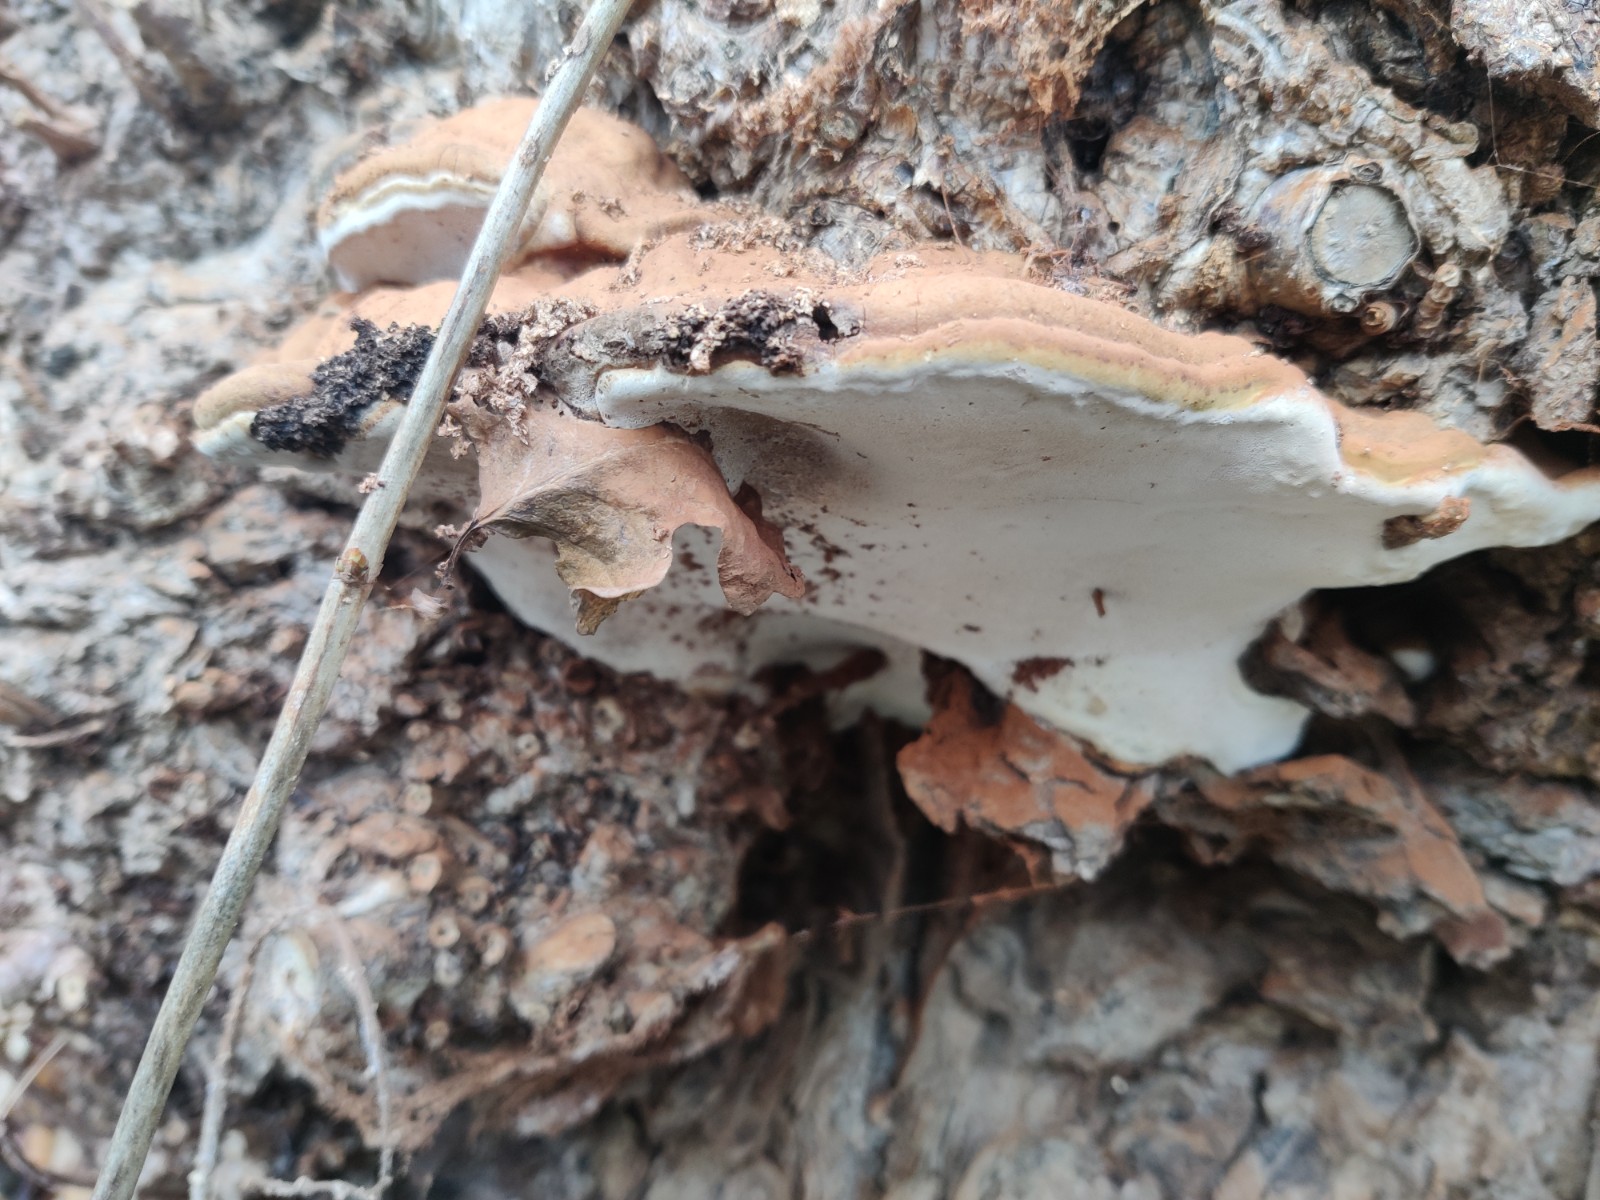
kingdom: Fungi
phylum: Basidiomycota
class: Agaricomycetes
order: Polyporales
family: Polyporaceae
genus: Ganoderma
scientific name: Ganoderma applanatum
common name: flad lakporesvamp
